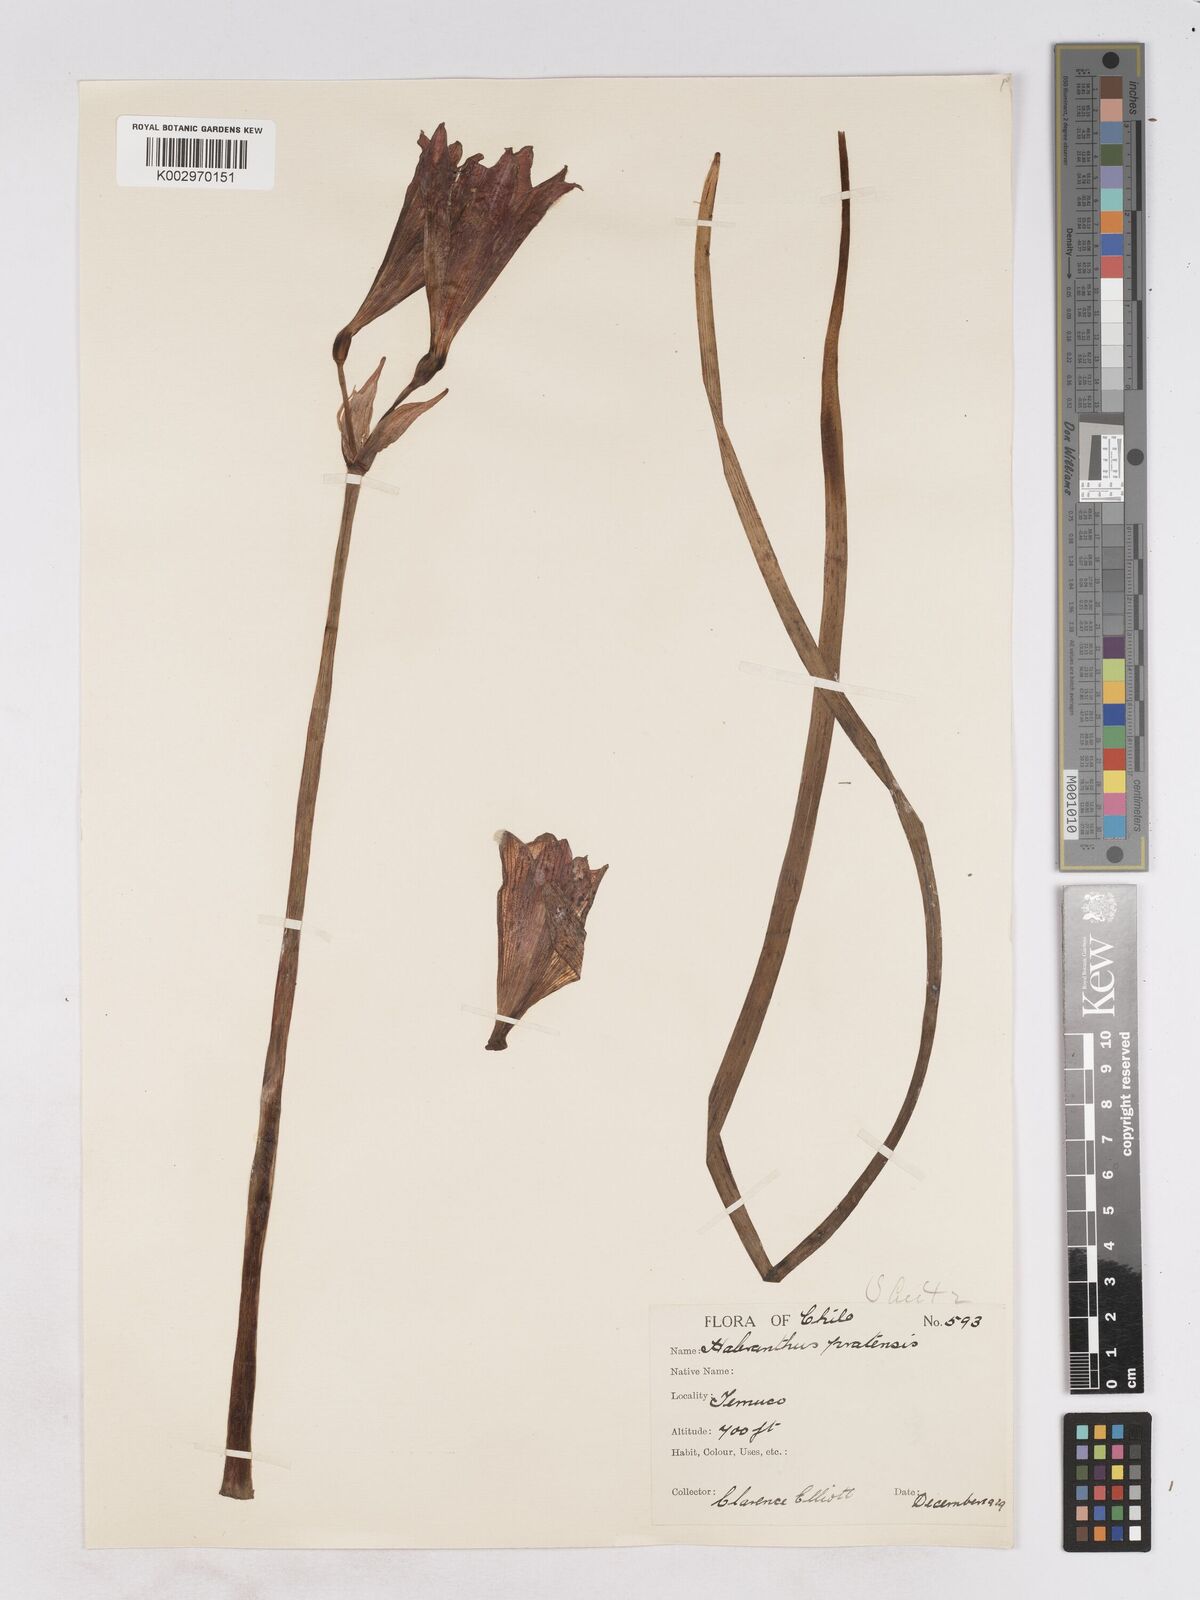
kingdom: Plantae
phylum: Tracheophyta
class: Liliopsida
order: Asparagales
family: Amaryllidaceae
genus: Phycella
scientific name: Phycella chilensis
